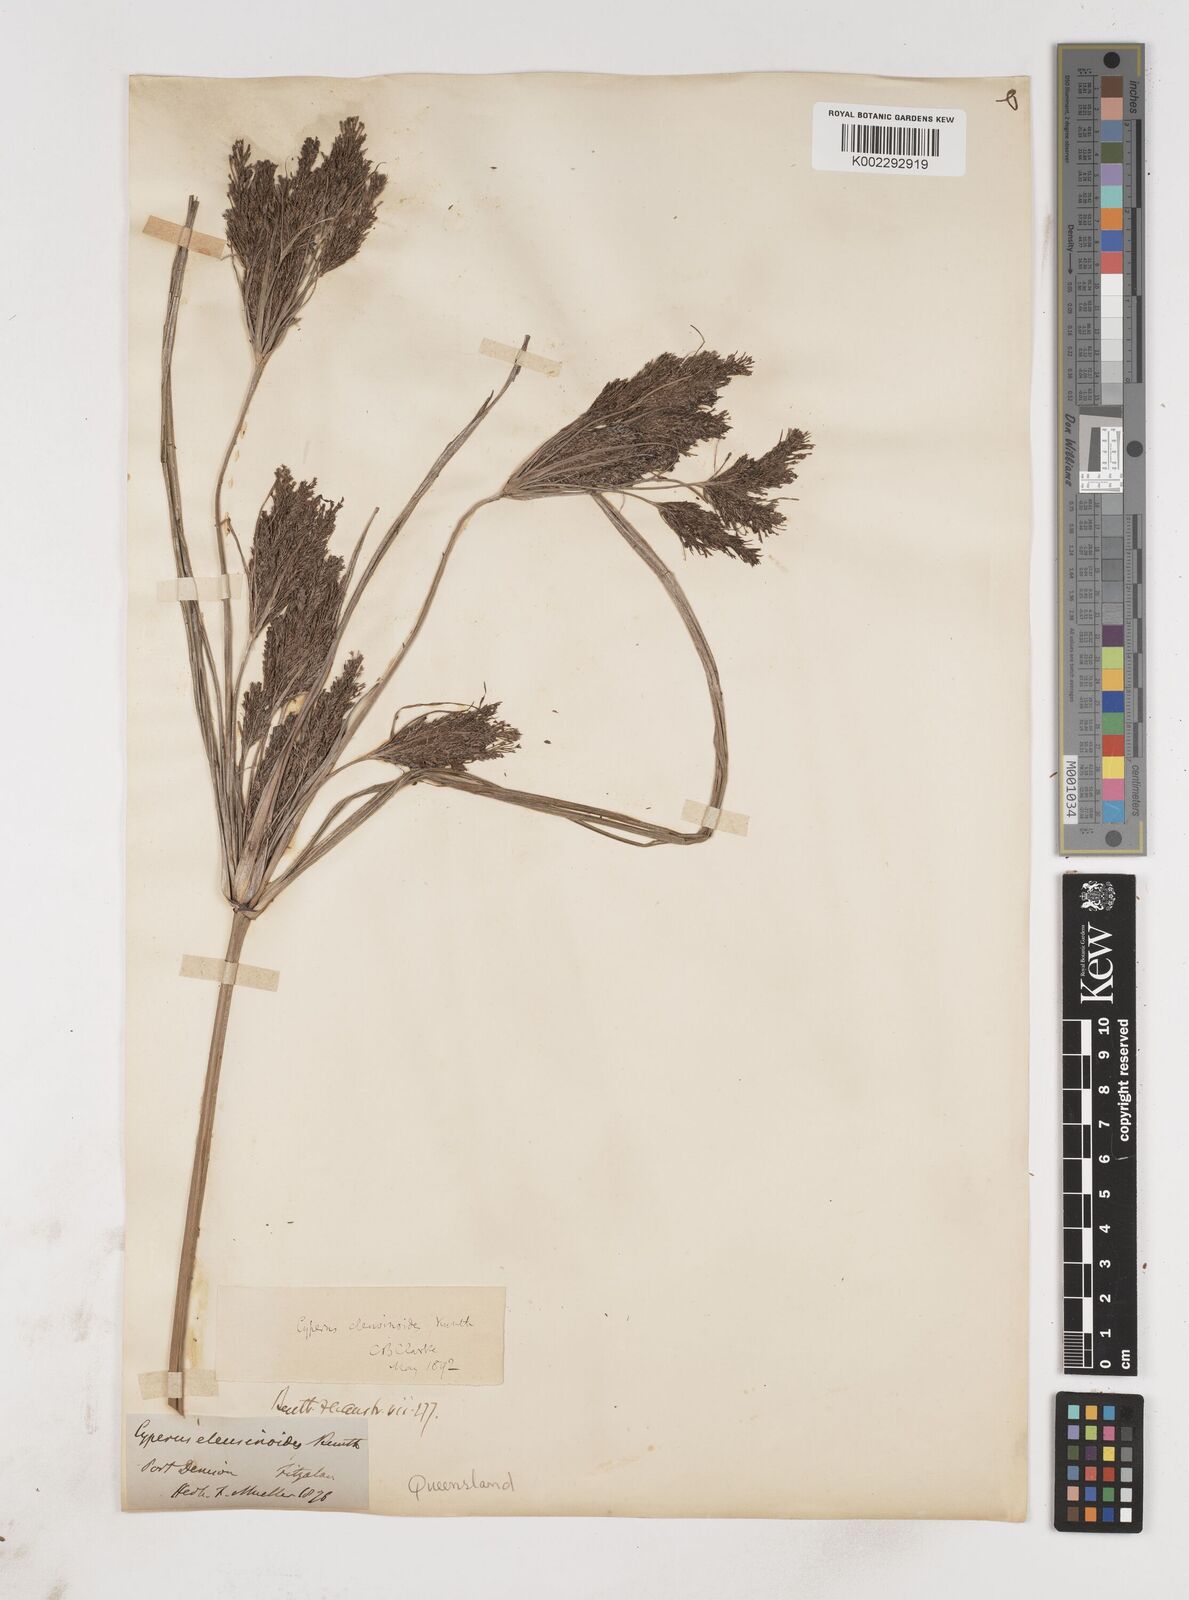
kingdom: Plantae
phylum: Tracheophyta
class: Liliopsida
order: Poales
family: Cyperaceae
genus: Cyperus
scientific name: Cyperus nutans
